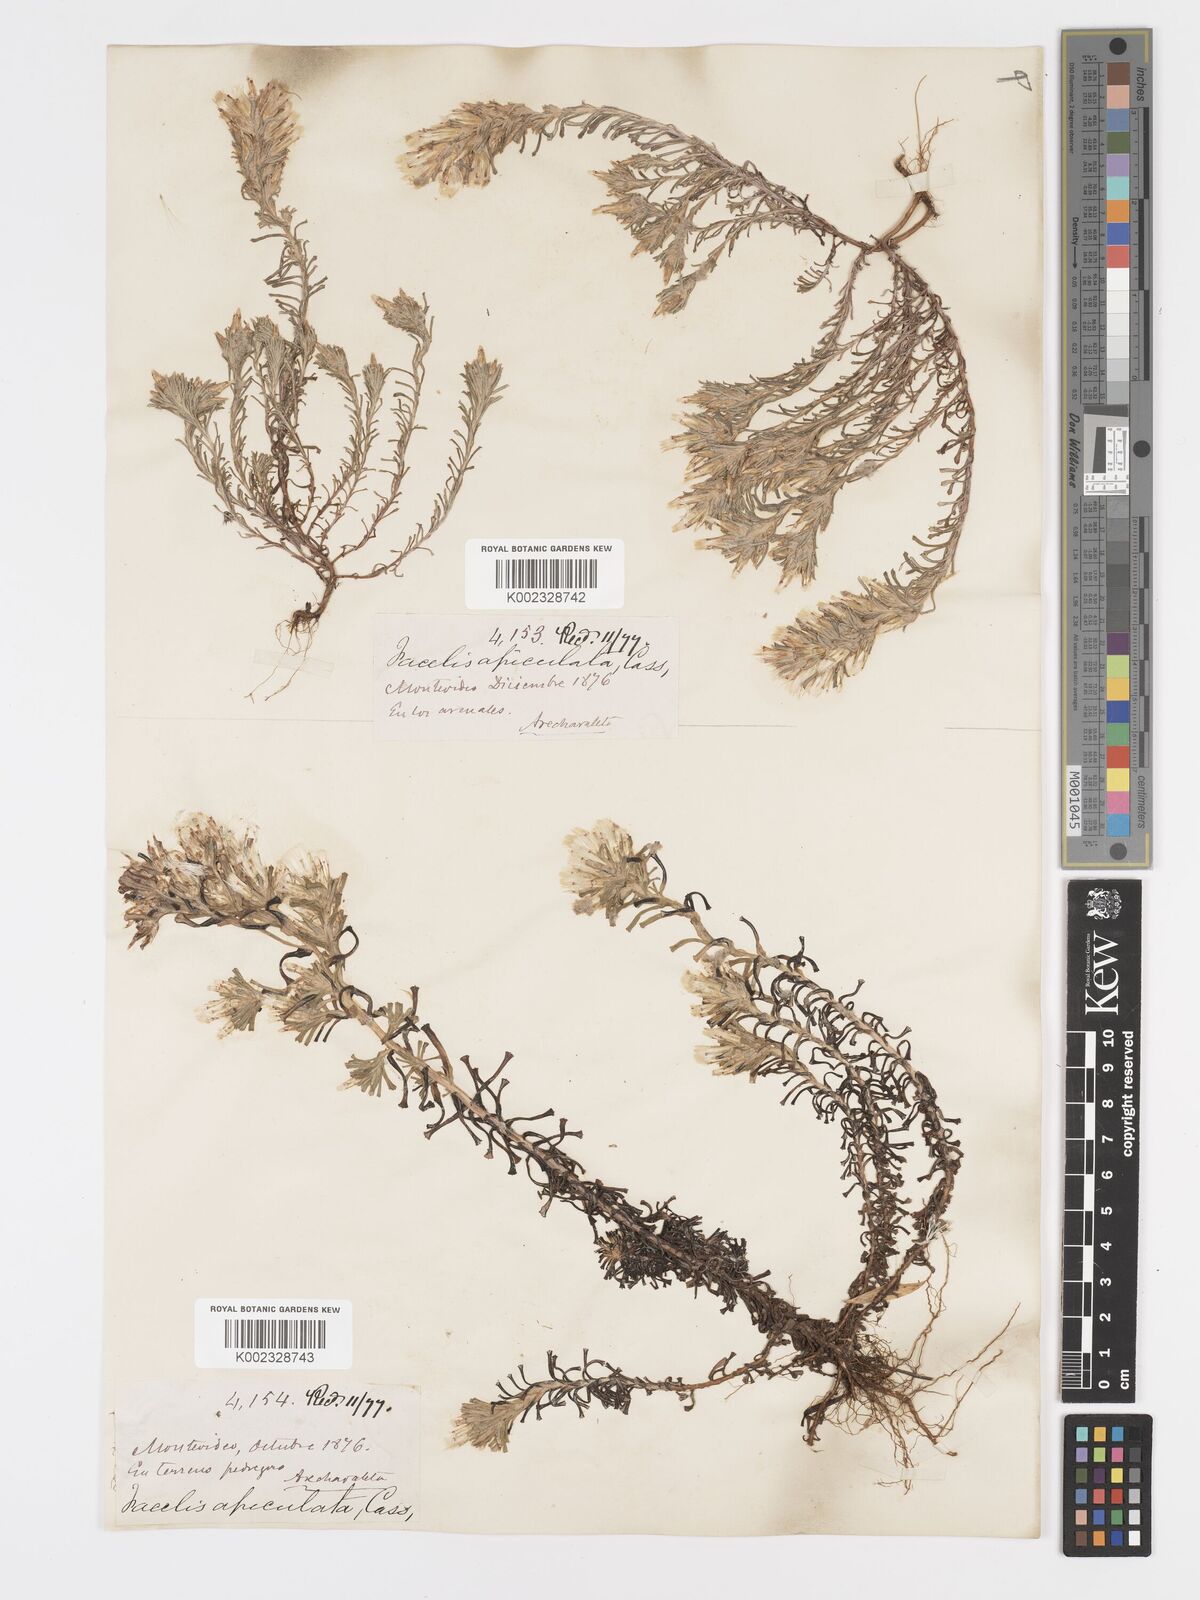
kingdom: Plantae
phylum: Tracheophyta
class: Magnoliopsida
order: Asterales
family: Asteraceae
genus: Facelis
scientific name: Facelis retusa
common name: Annual trampweed
